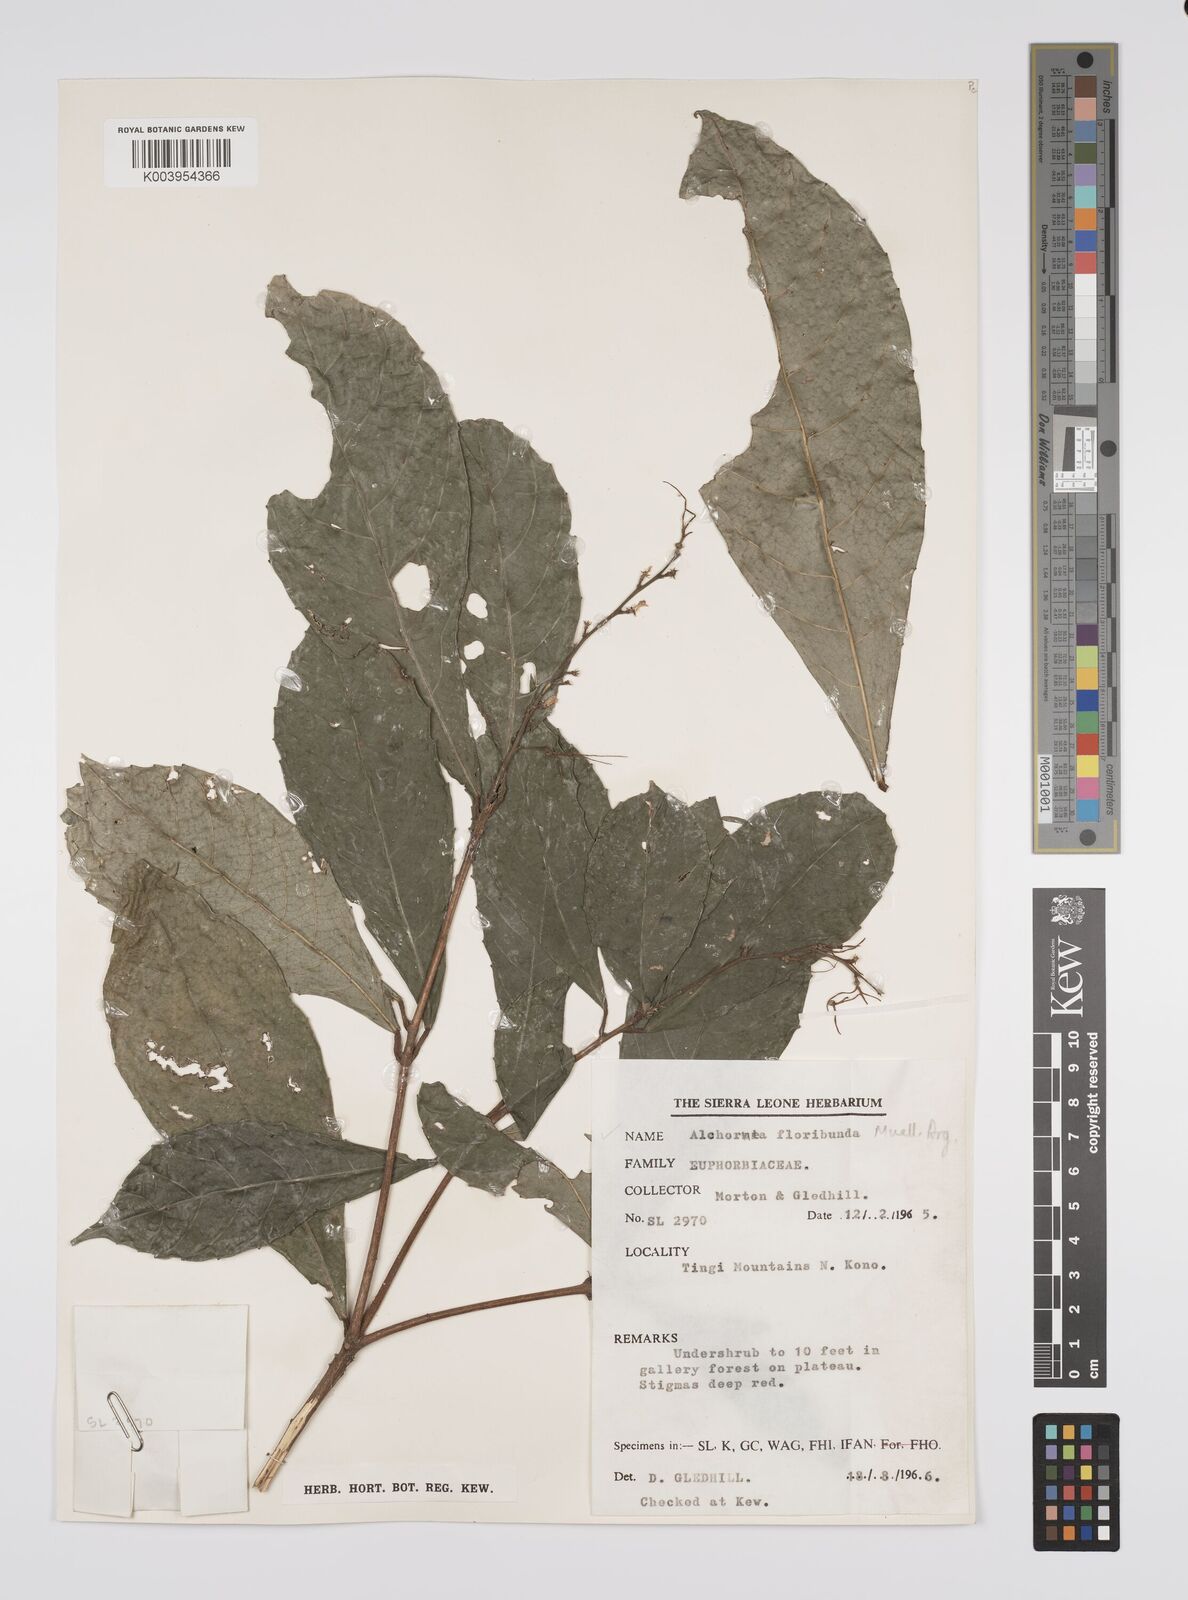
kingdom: Plantae
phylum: Tracheophyta
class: Magnoliopsida
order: Malpighiales
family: Euphorbiaceae
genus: Alchornea
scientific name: Alchornea floribunda
